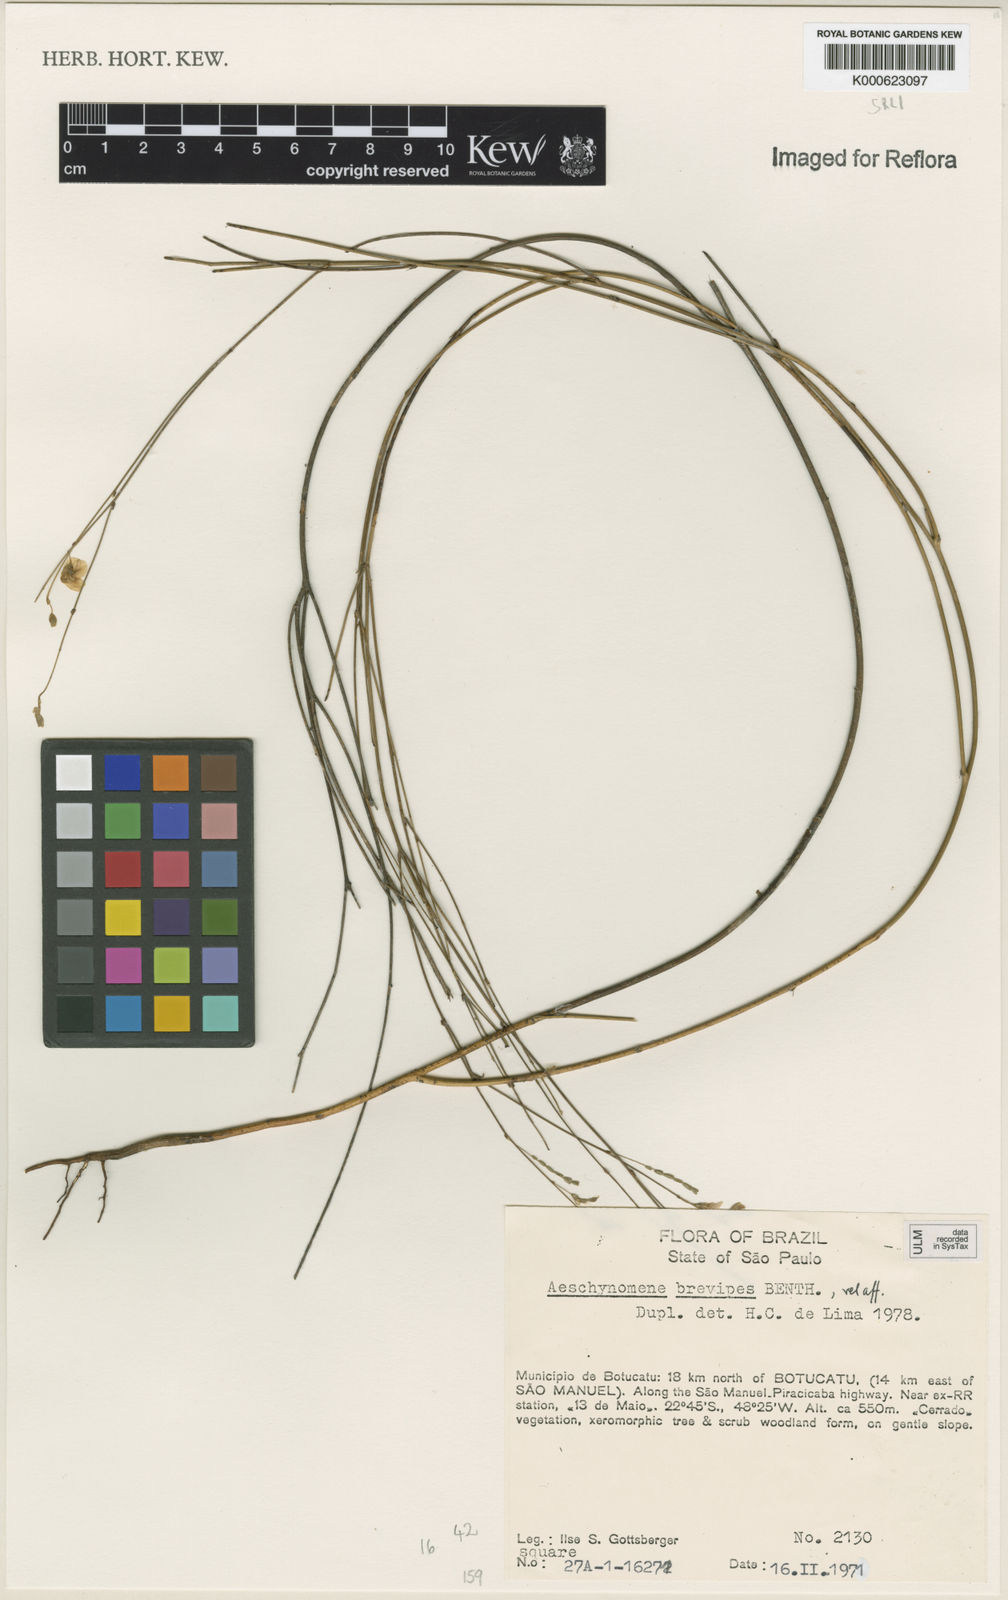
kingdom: Plantae
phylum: Tracheophyta
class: Magnoliopsida
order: Fabales
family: Fabaceae
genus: Ctenodon
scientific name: Ctenodon brevipes
